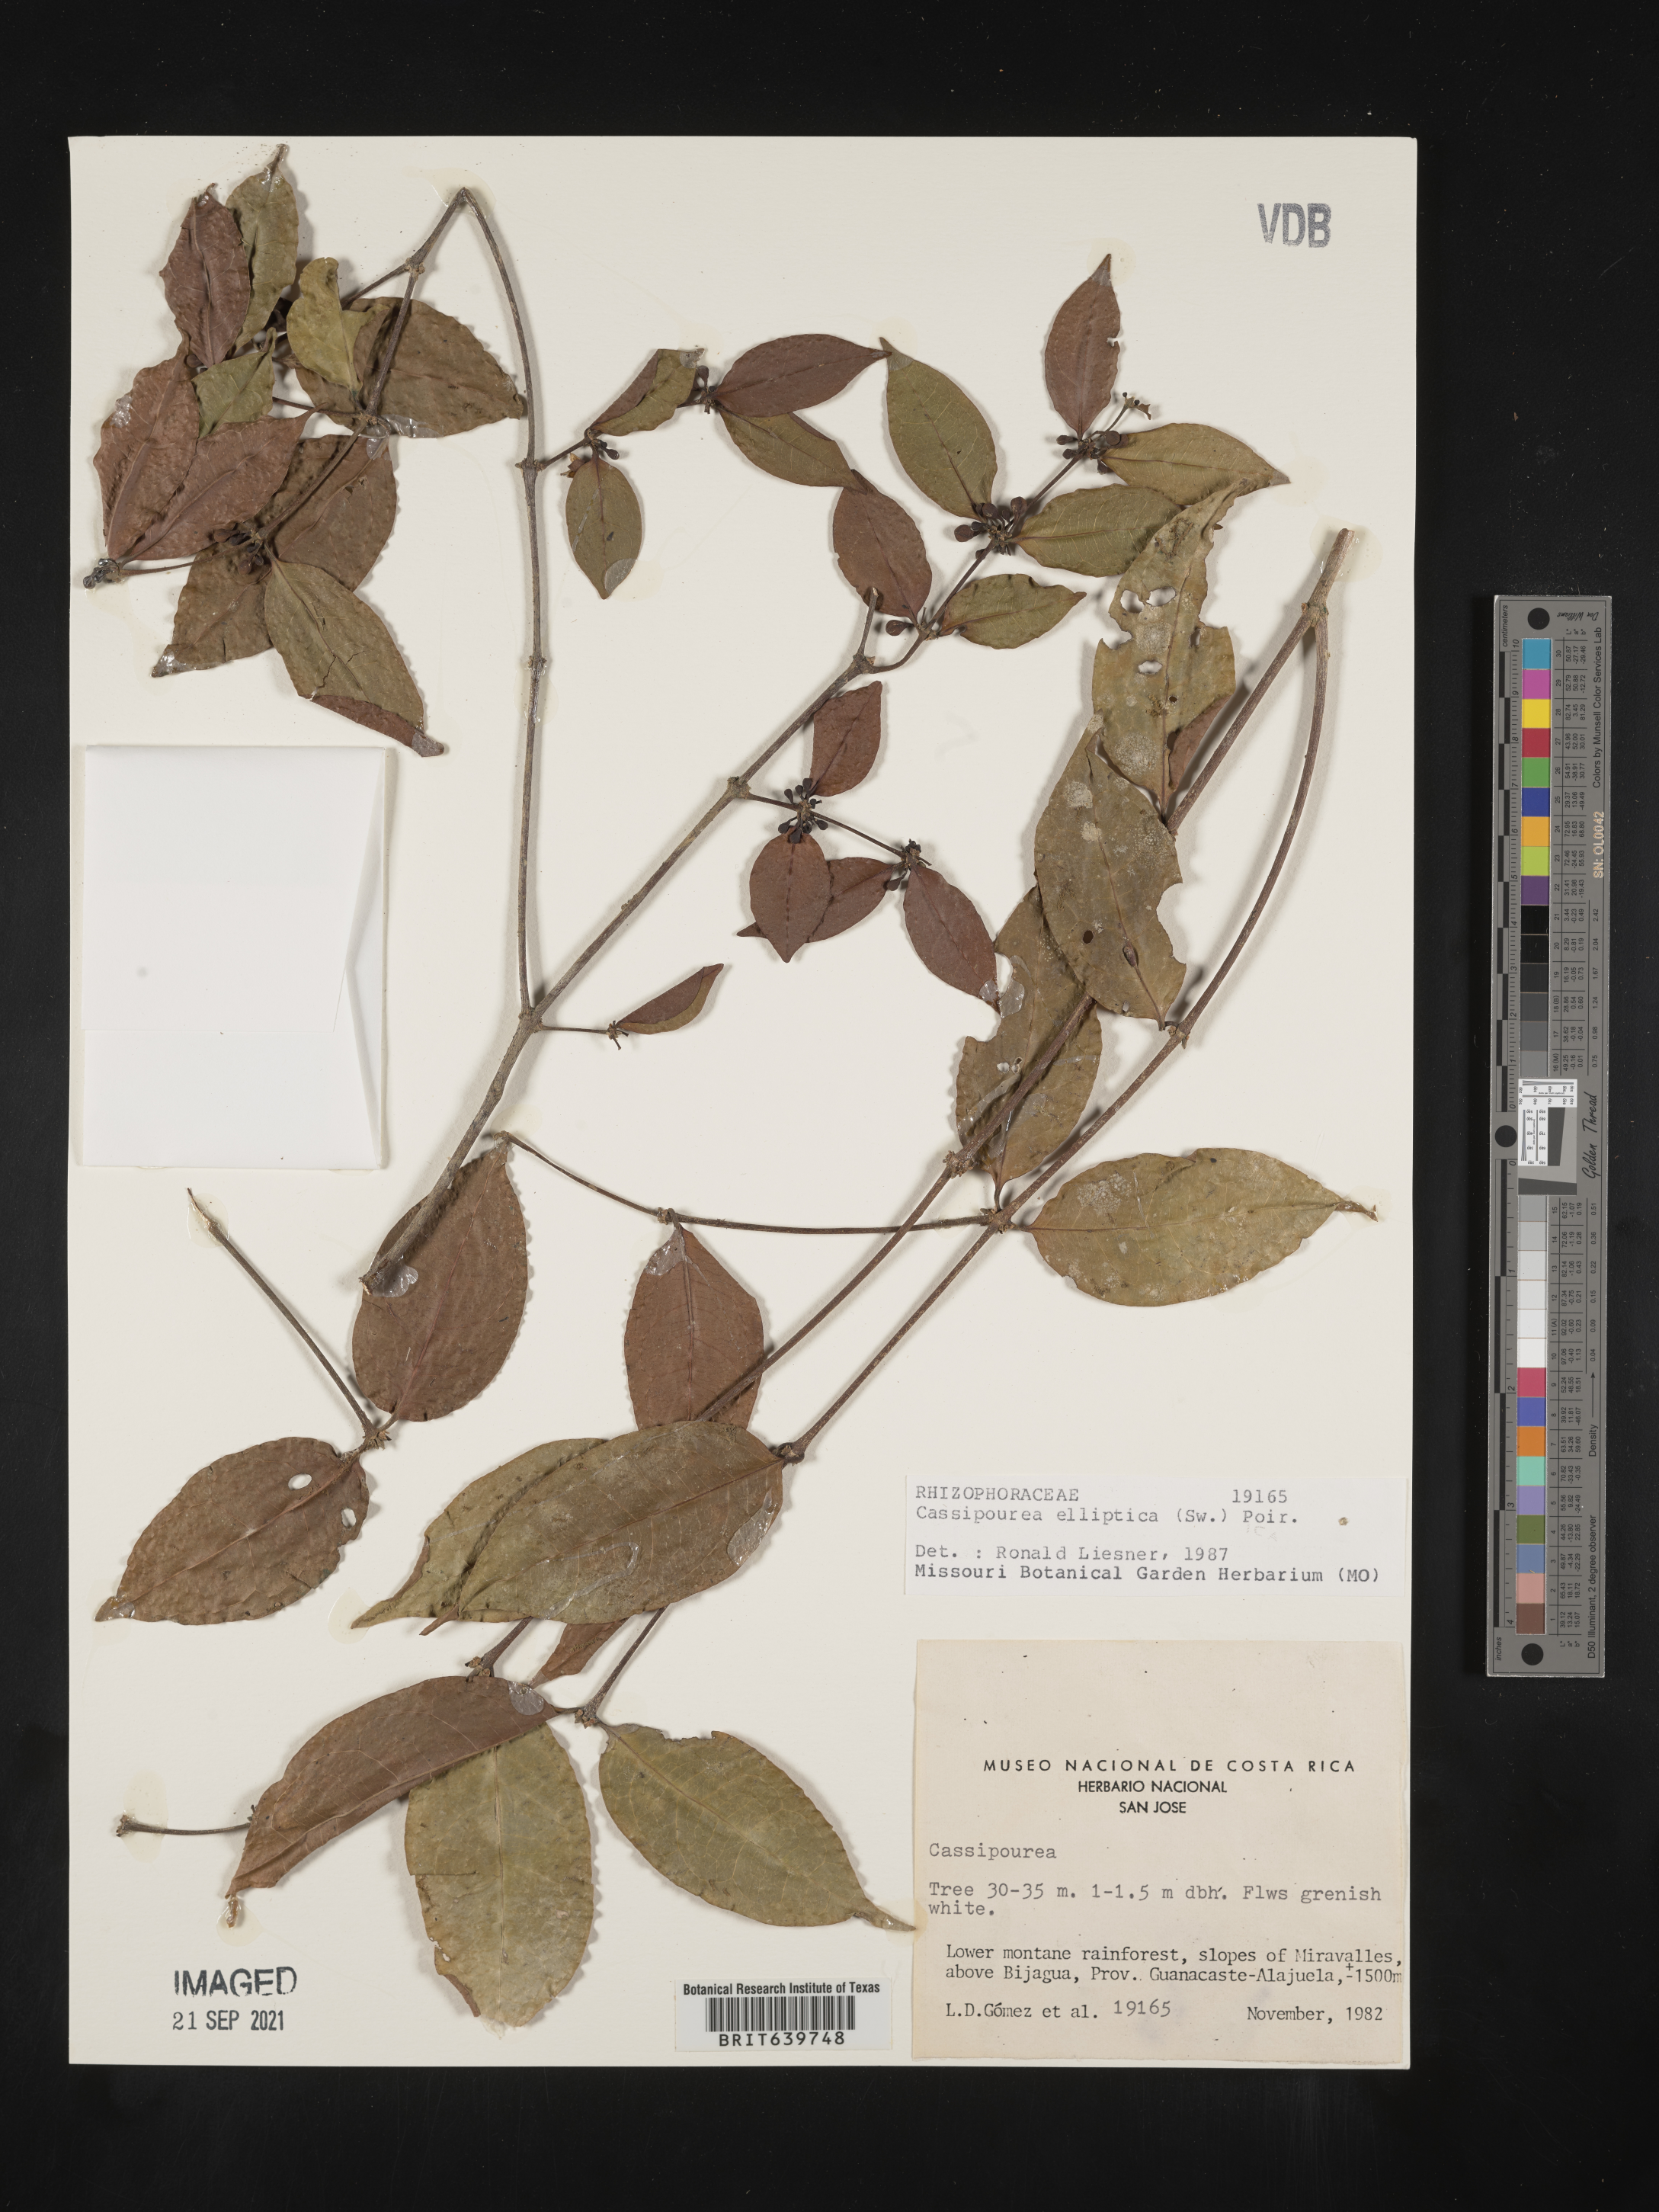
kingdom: Plantae
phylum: Tracheophyta
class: Magnoliopsida
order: Malpighiales
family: Rhizophoraceae
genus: Cassipourea
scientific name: Cassipourea
